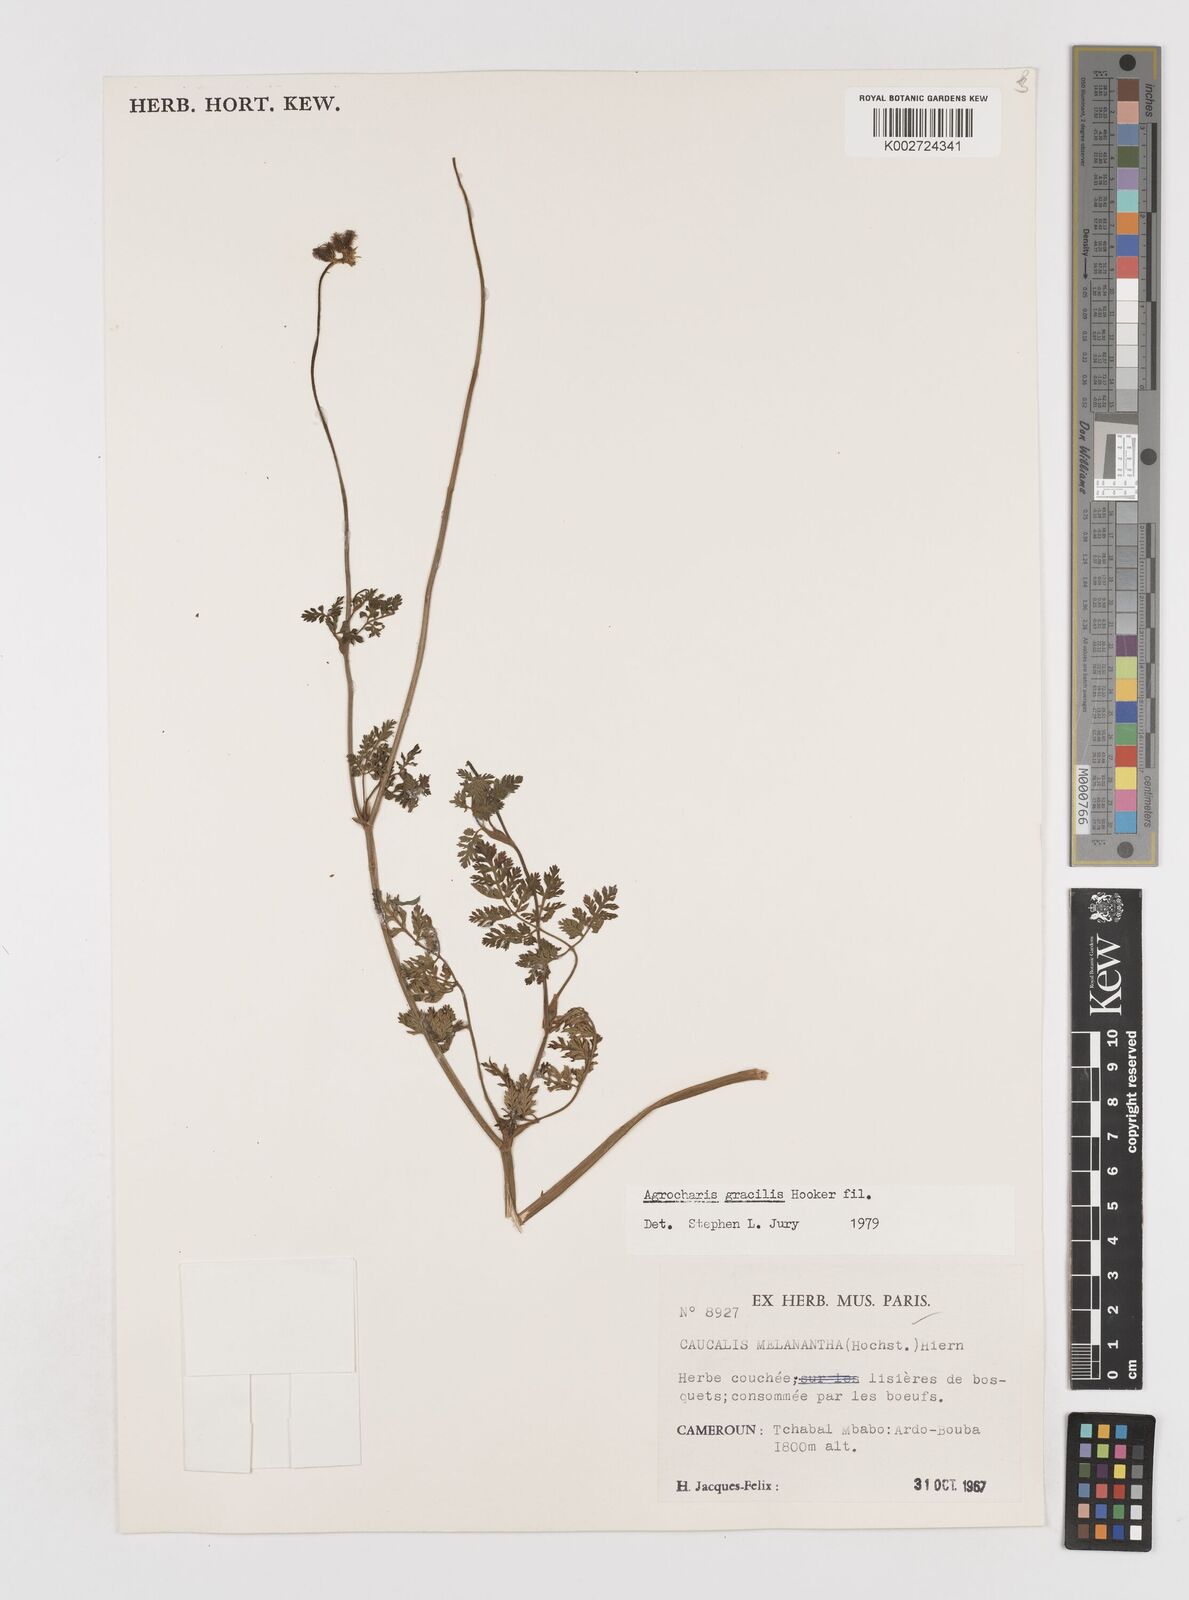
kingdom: Plantae
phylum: Tracheophyta
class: Magnoliopsida
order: Apiales
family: Apiaceae
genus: Daucus
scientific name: Daucus melananthus
